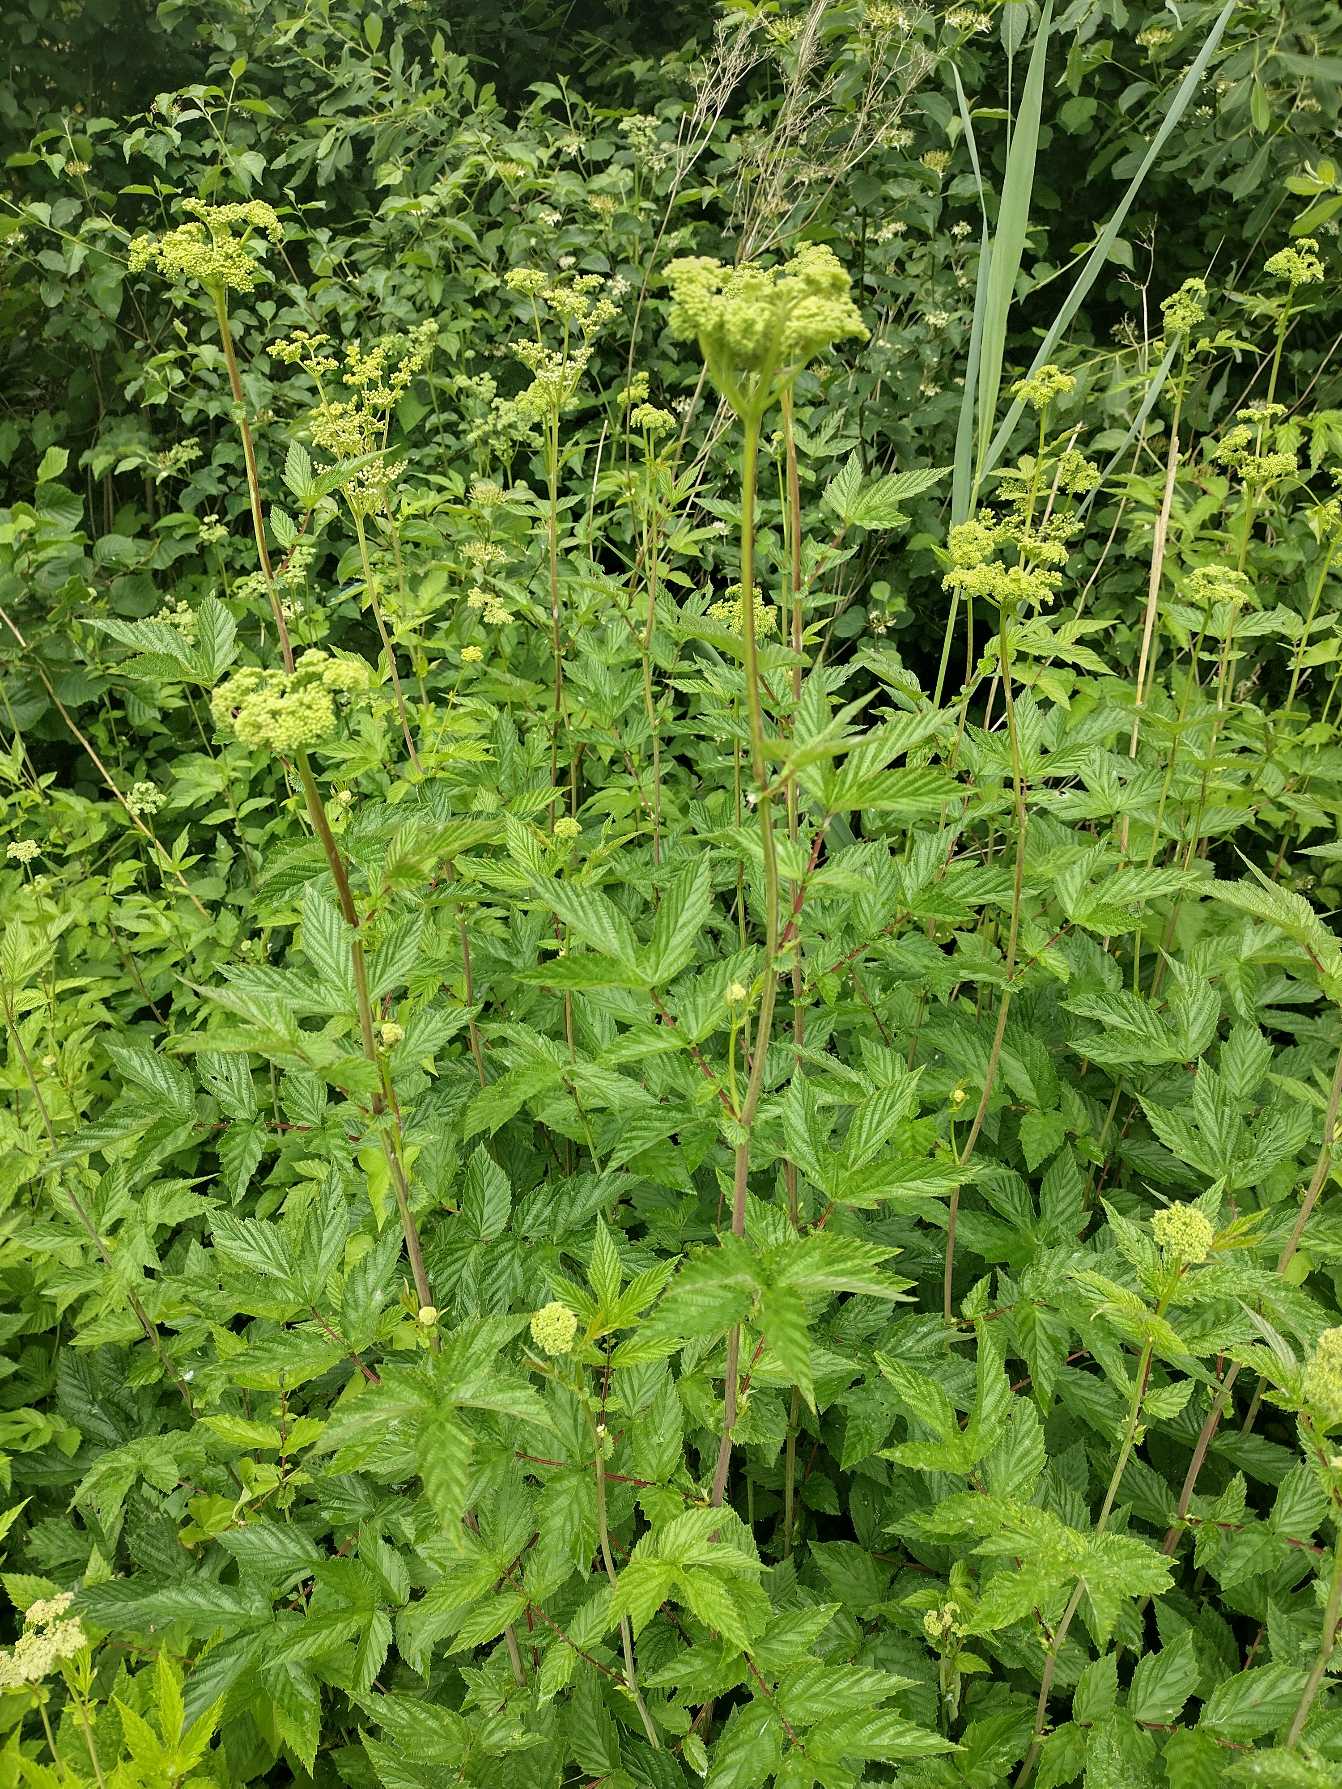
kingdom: Plantae
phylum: Tracheophyta
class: Magnoliopsida
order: Rosales
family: Rosaceae
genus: Filipendula
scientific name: Filipendula ulmaria
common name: Almindelig mjødurt
